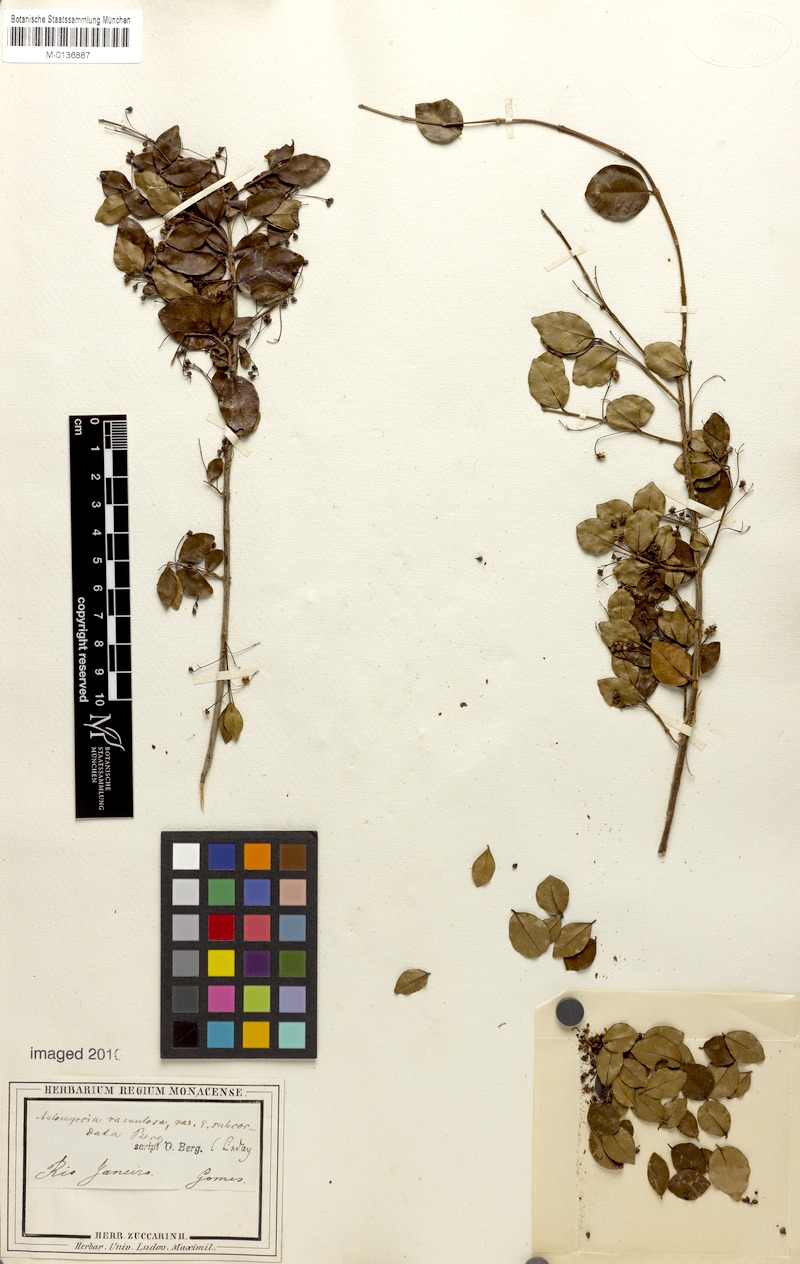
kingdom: Plantae
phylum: Tracheophyta
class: Magnoliopsida
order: Myrtales
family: Myrtaceae
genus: Myrcia
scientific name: Myrcia selloi
